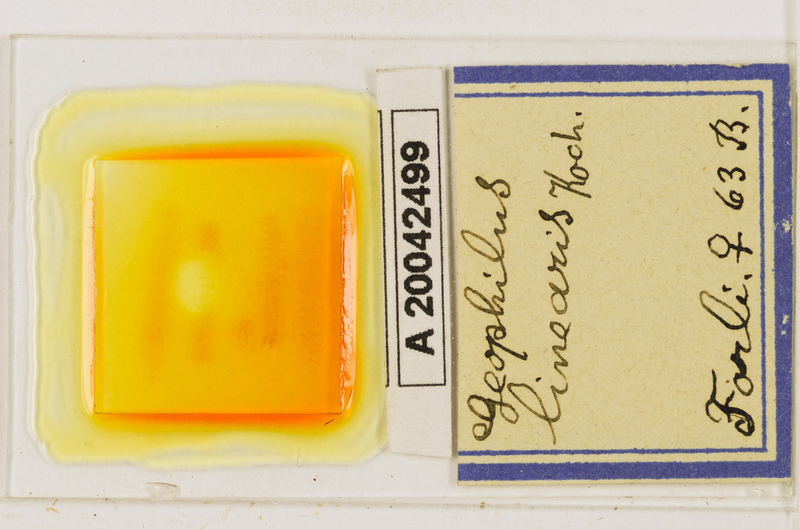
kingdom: Animalia
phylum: Arthropoda
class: Chilopoda
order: Geophilomorpha
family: Geophilidae
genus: Stenotaenia
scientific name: Stenotaenia linearis
